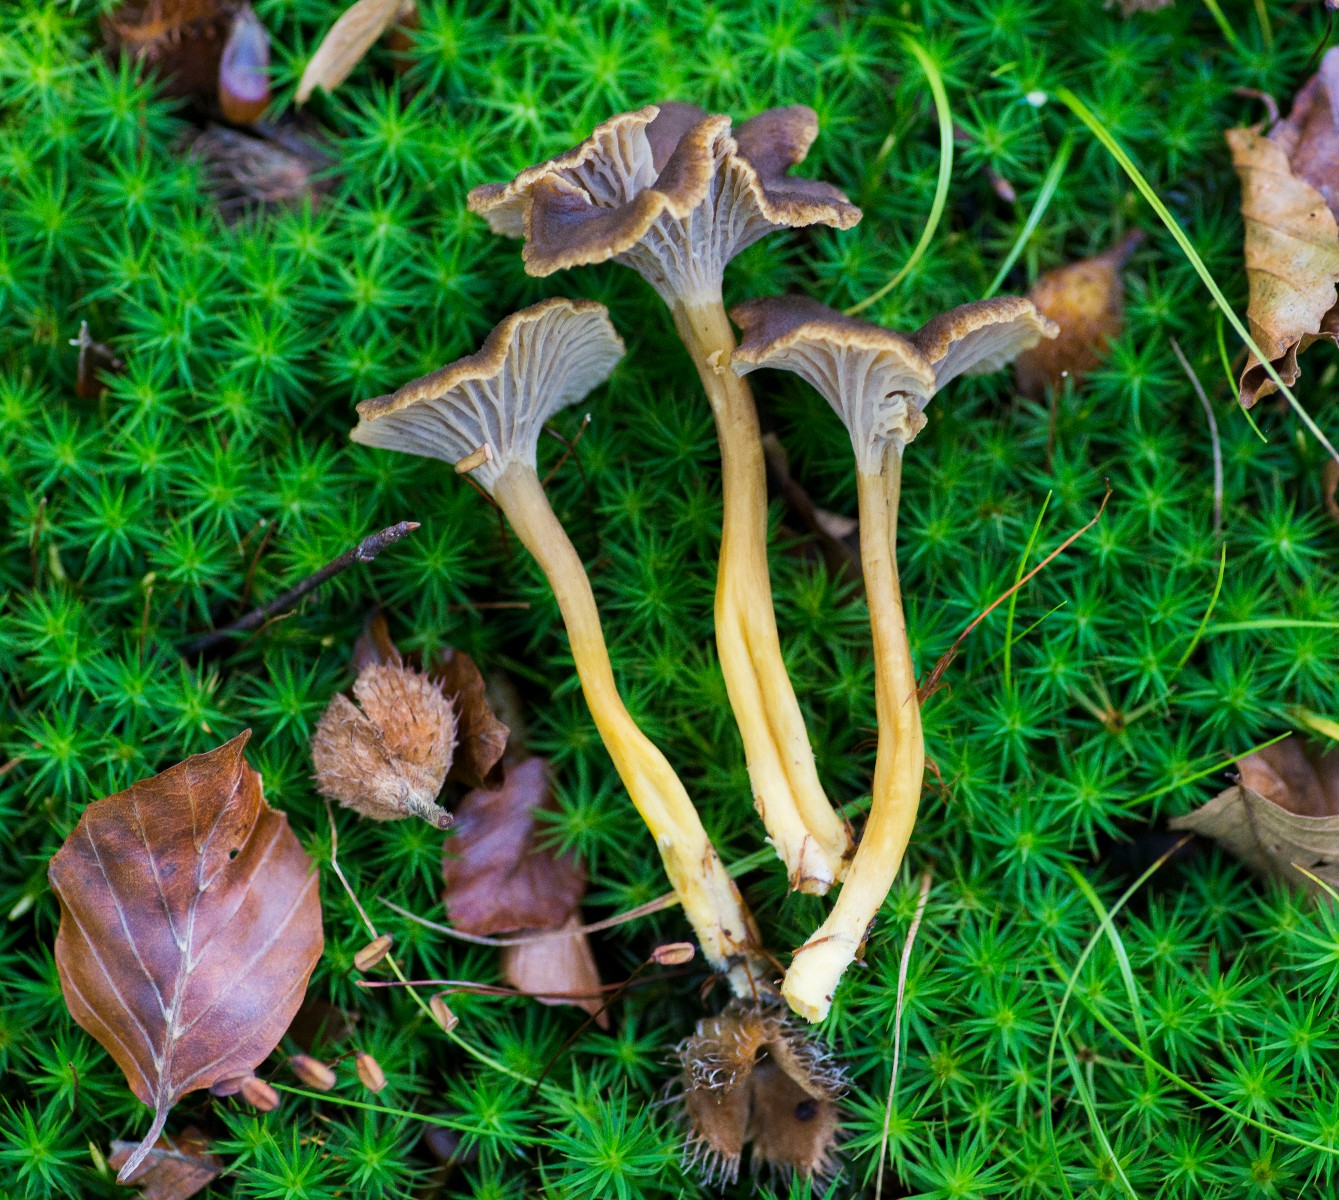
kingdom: Fungi
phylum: Basidiomycota
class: Agaricomycetes
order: Cantharellales
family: Hydnaceae
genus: Craterellus
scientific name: Craterellus tubaeformis
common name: tragt-kantarel
